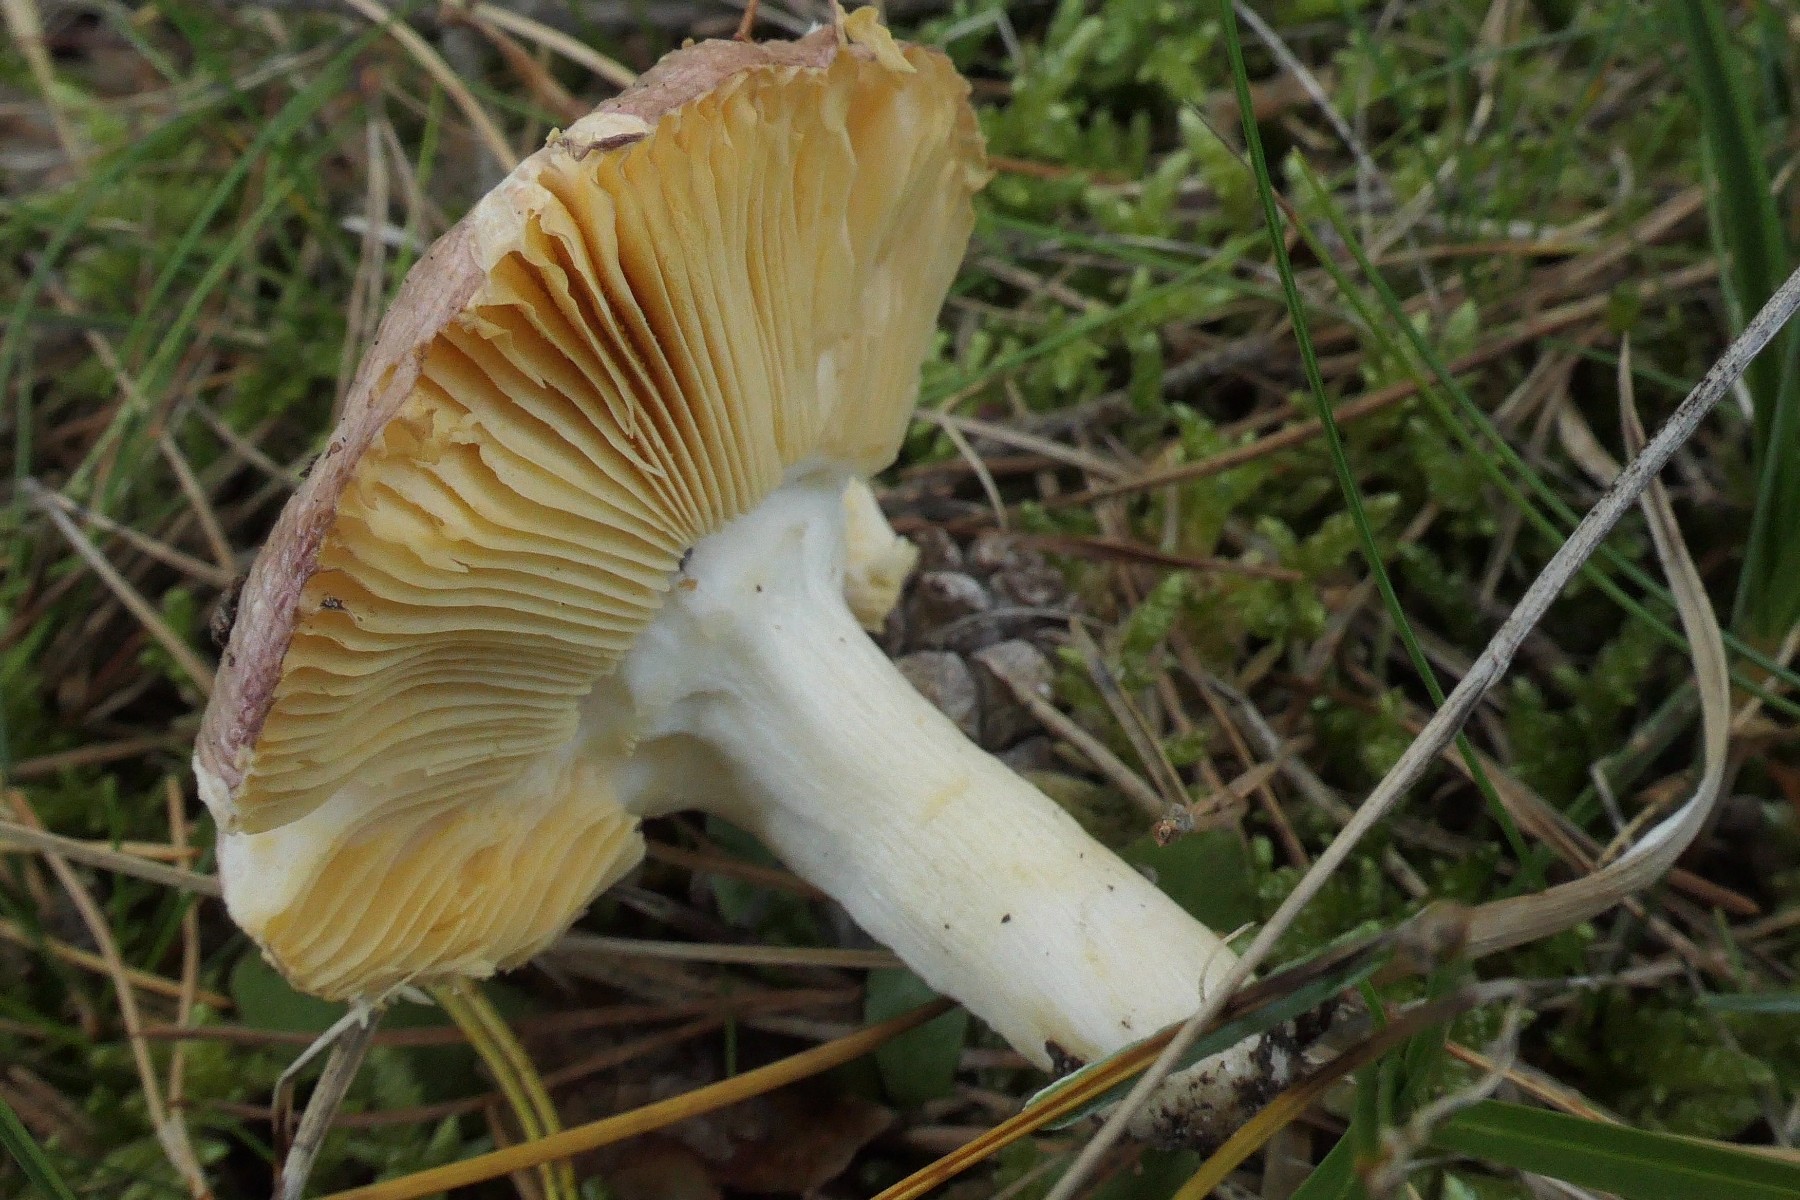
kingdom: Fungi
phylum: Basidiomycota
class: Agaricomycetes
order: Russulales
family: Russulaceae
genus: Russula
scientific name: Russula cessans
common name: fyrre-skørhat
